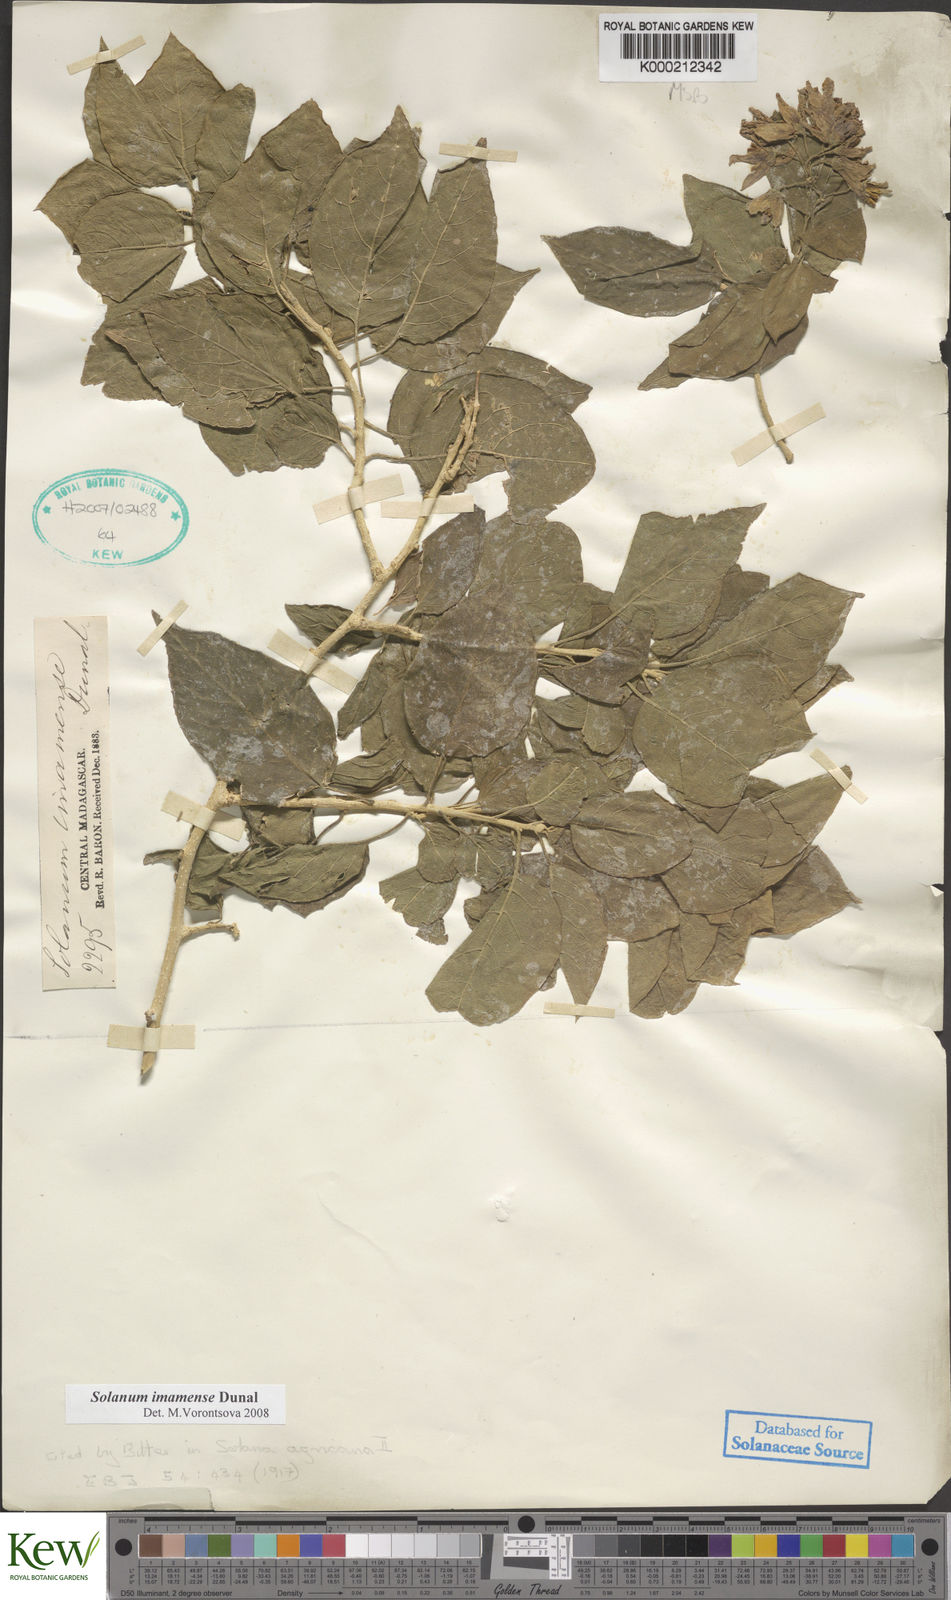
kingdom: Plantae
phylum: Tracheophyta
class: Magnoliopsida
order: Solanales
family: Solanaceae
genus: Solanum
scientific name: Solanum imamense
